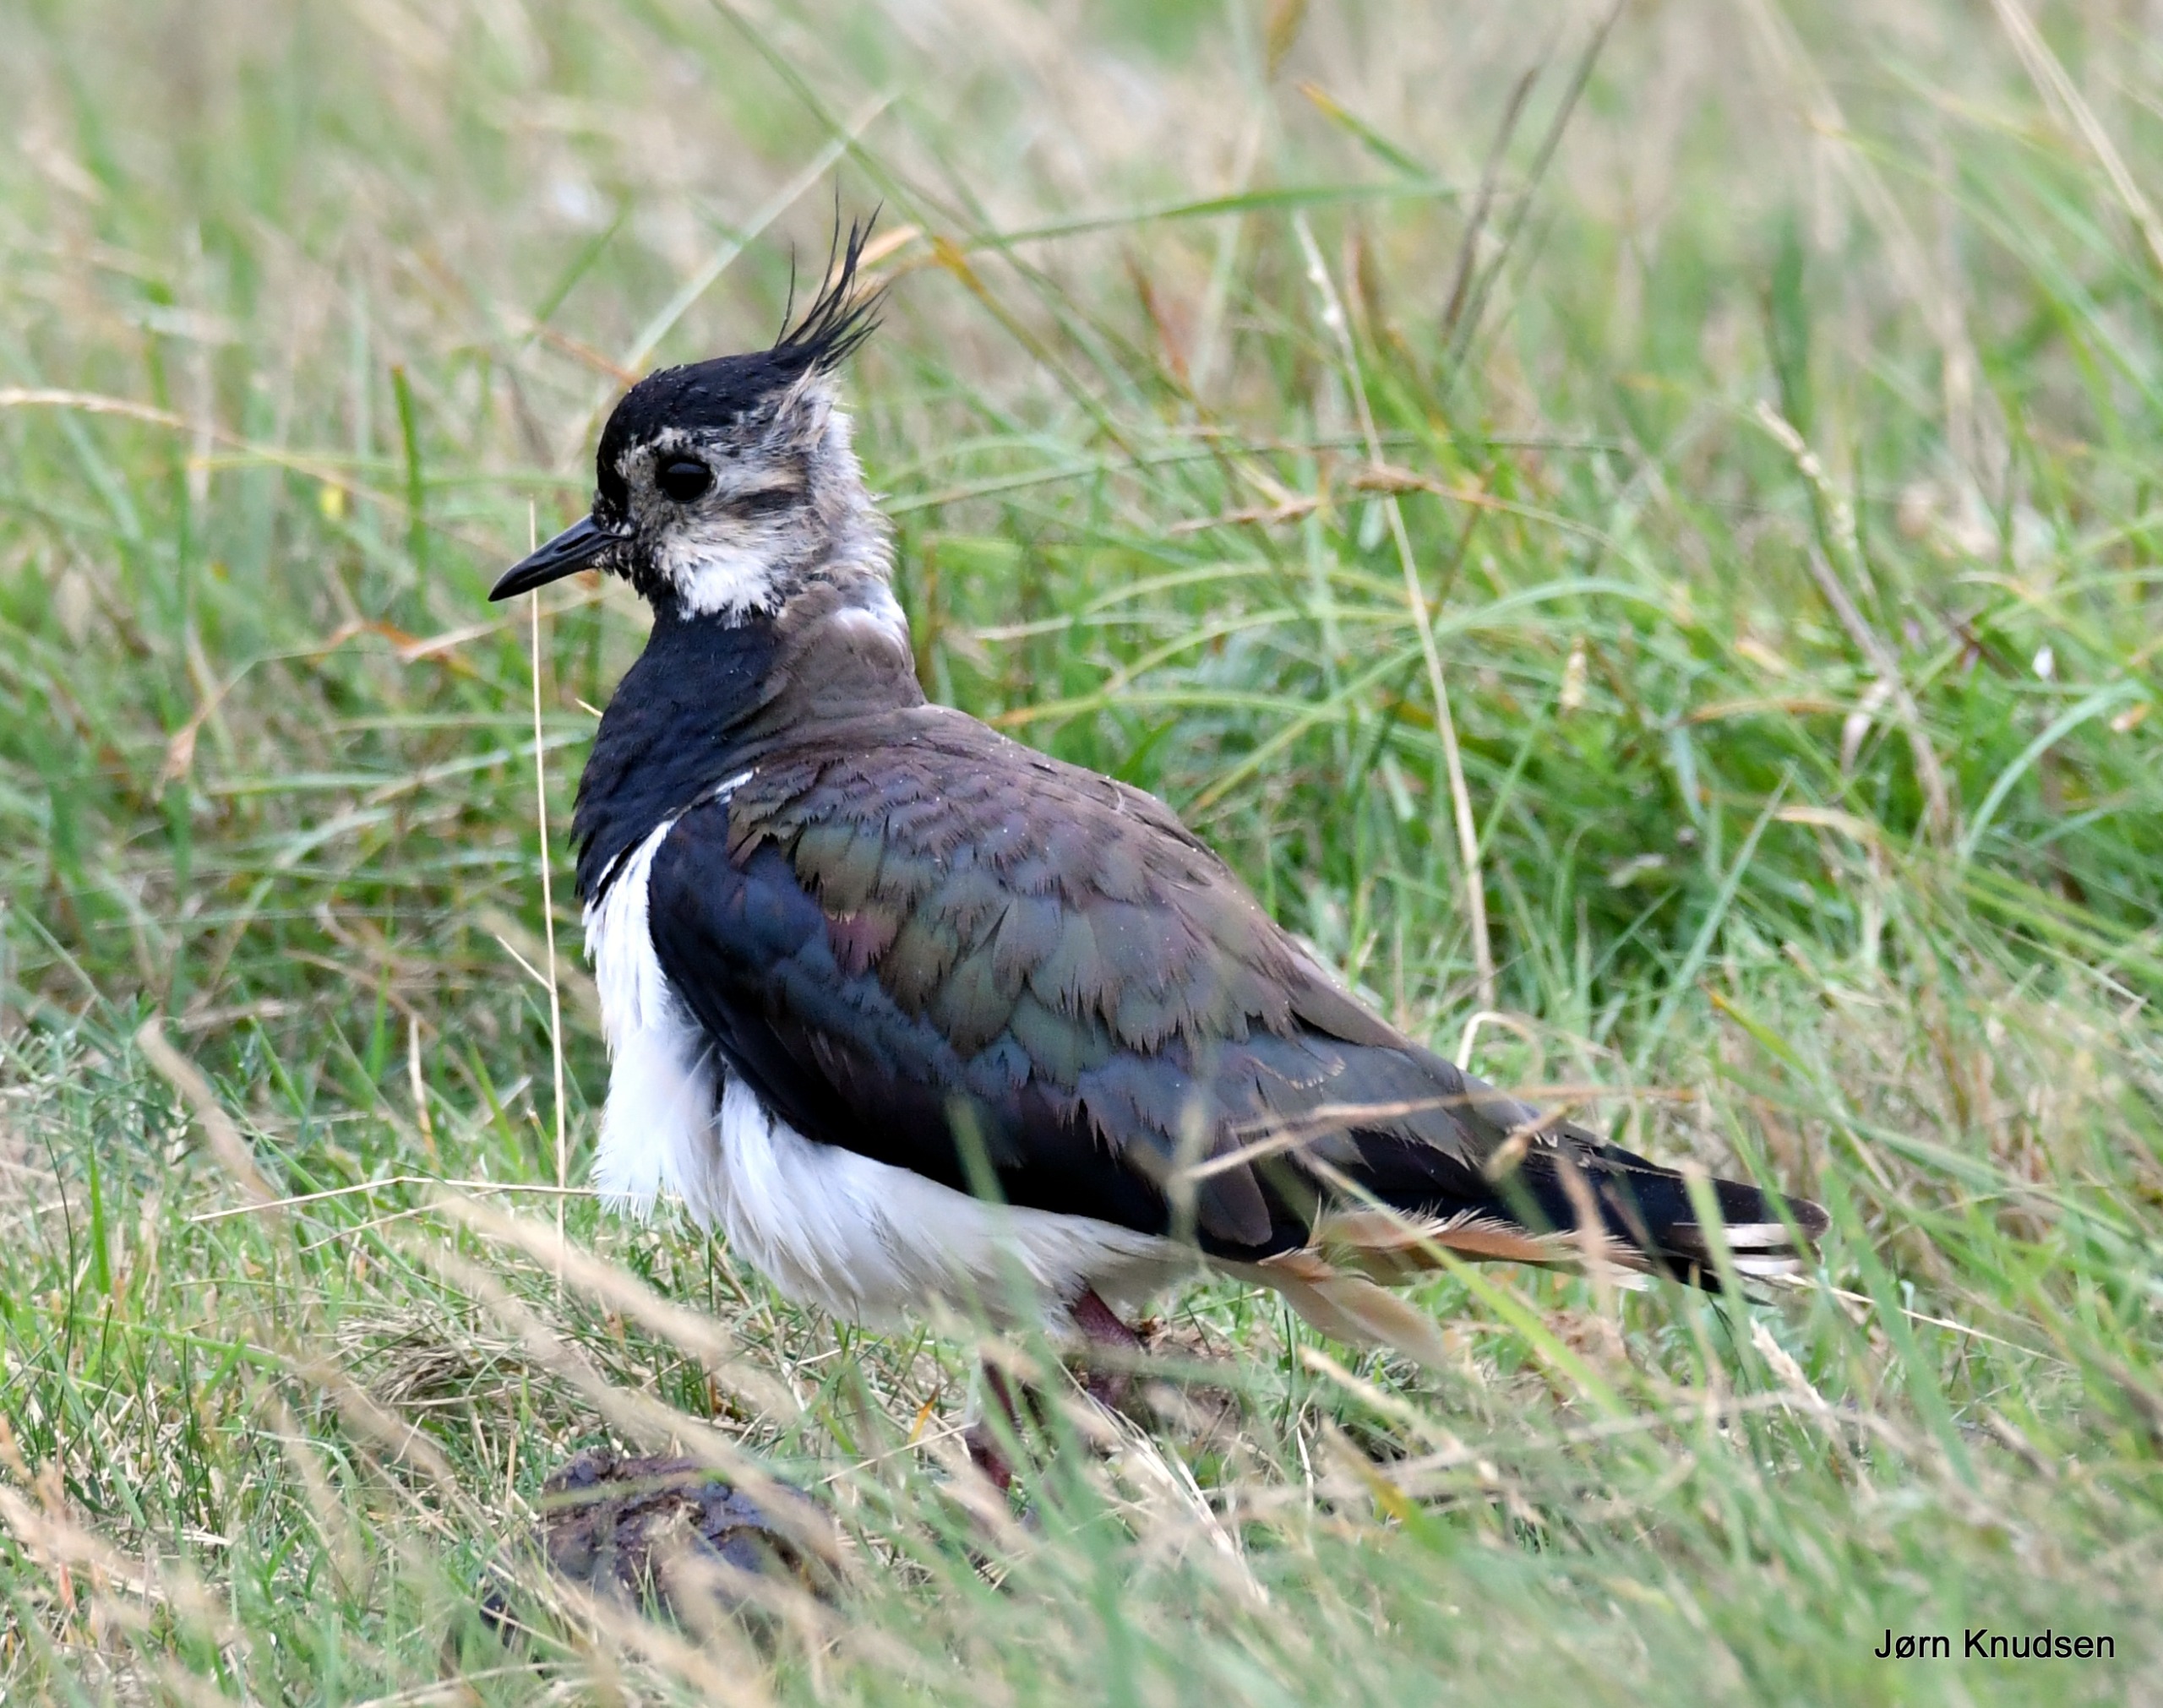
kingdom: Animalia
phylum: Chordata
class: Aves
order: Charadriiformes
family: Charadriidae
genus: Vanellus
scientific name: Vanellus vanellus
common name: Vibe
